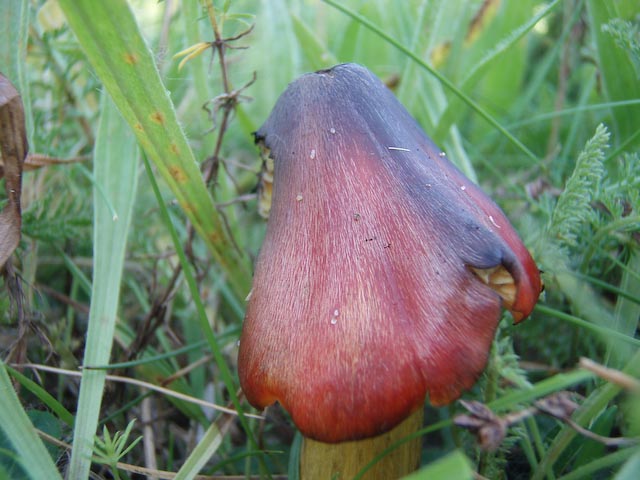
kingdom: Fungi
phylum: Basidiomycota
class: Agaricomycetes
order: Agaricales
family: Hygrophoraceae
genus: Hygrocybe
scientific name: Hygrocybe conica
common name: kegle-vokshat
